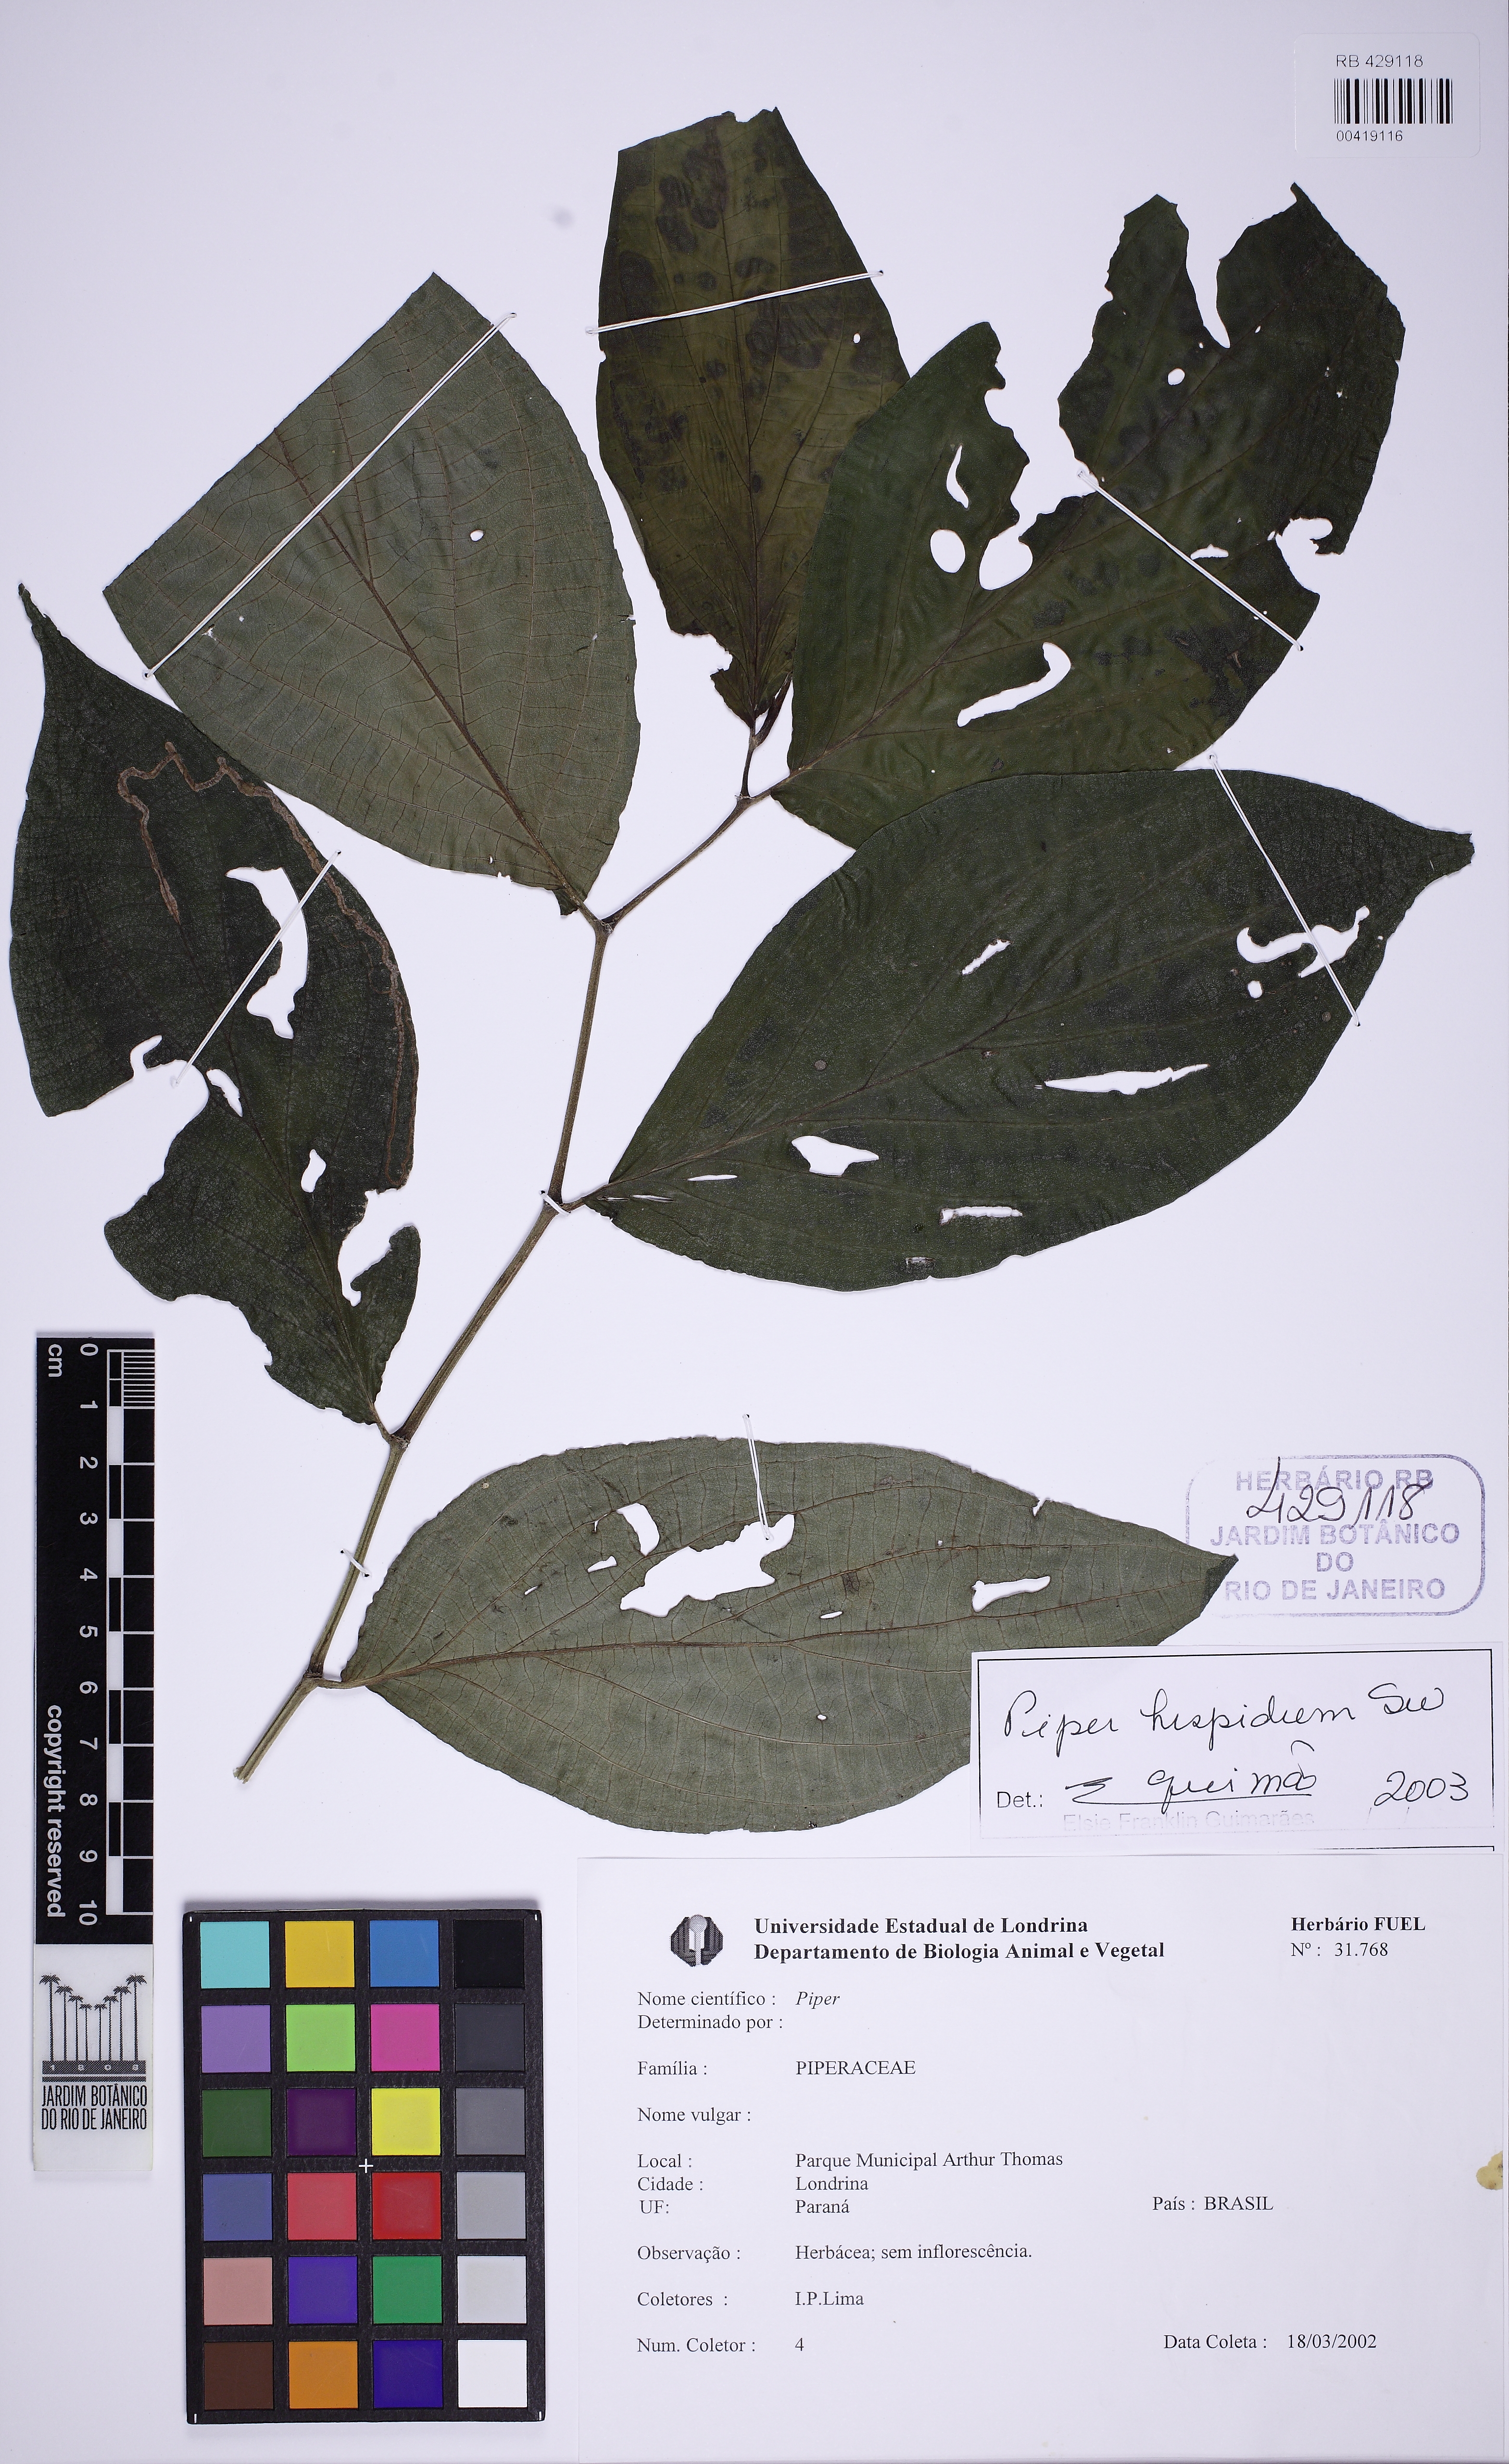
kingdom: Plantae
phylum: Tracheophyta
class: Magnoliopsida
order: Piperales
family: Piperaceae
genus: Piper
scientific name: Piper hispidum
